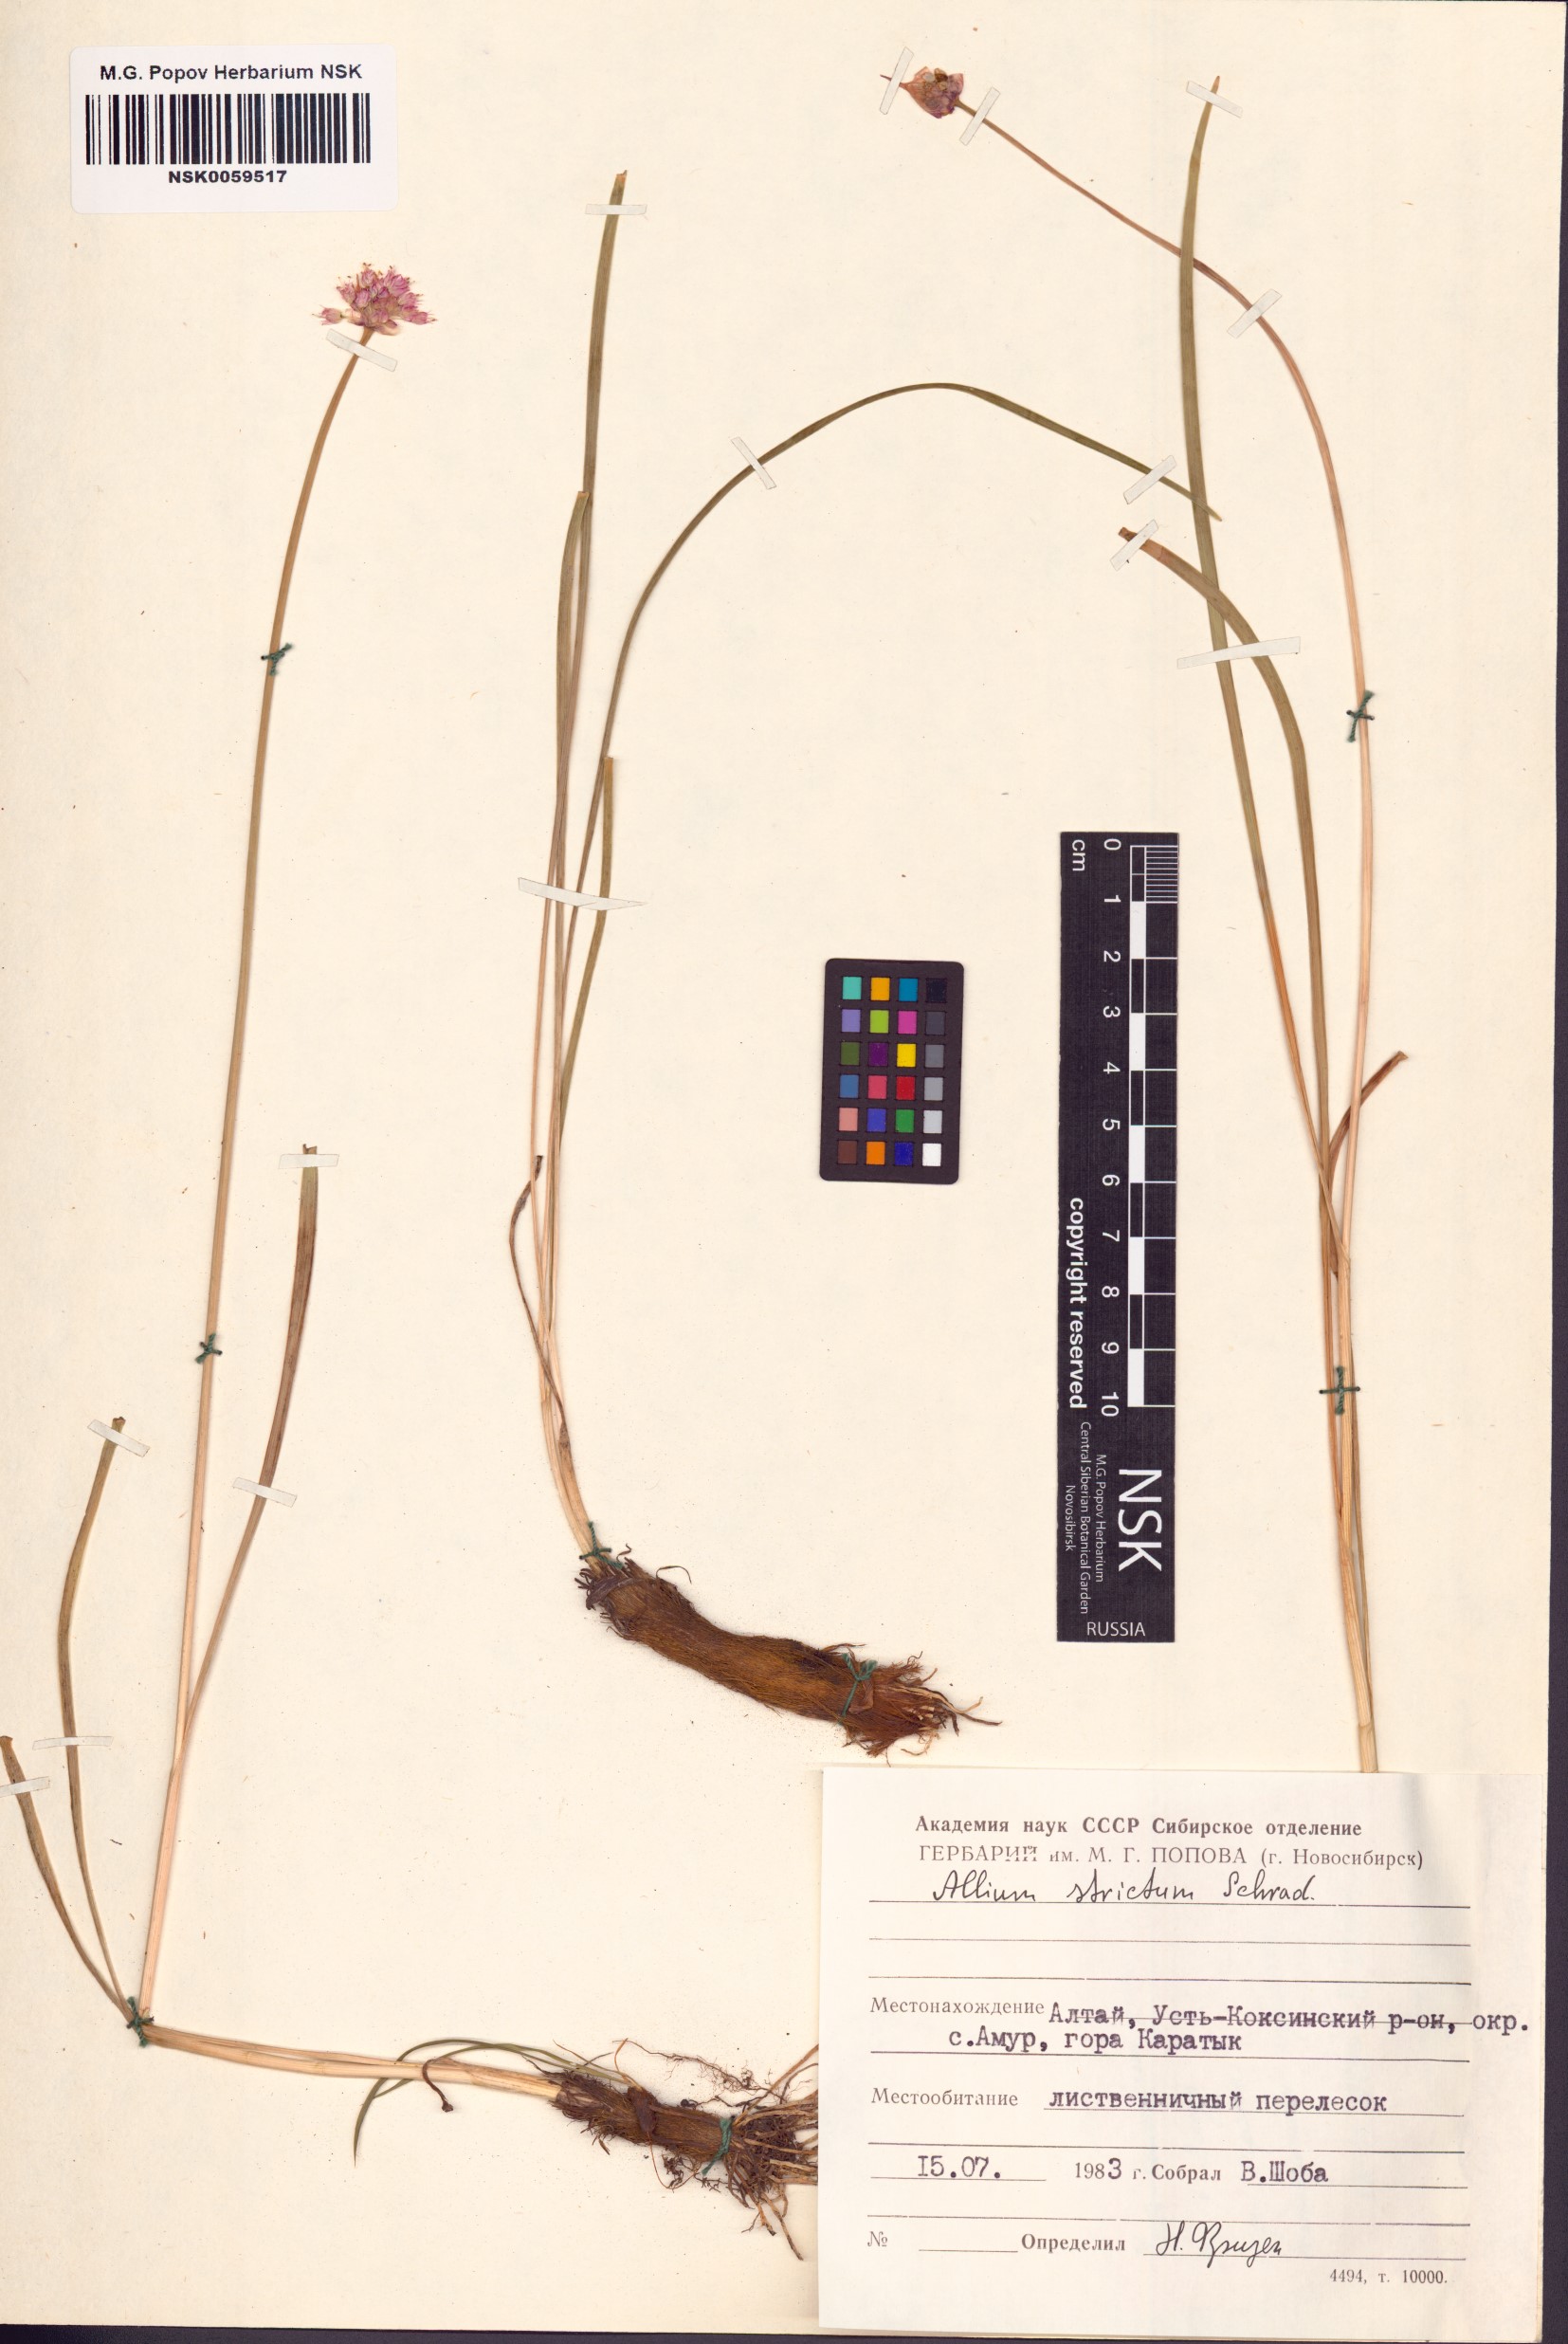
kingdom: Plantae
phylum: Tracheophyta
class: Liliopsida
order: Asparagales
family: Amaryllidaceae
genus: Allium
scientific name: Allium strictum
